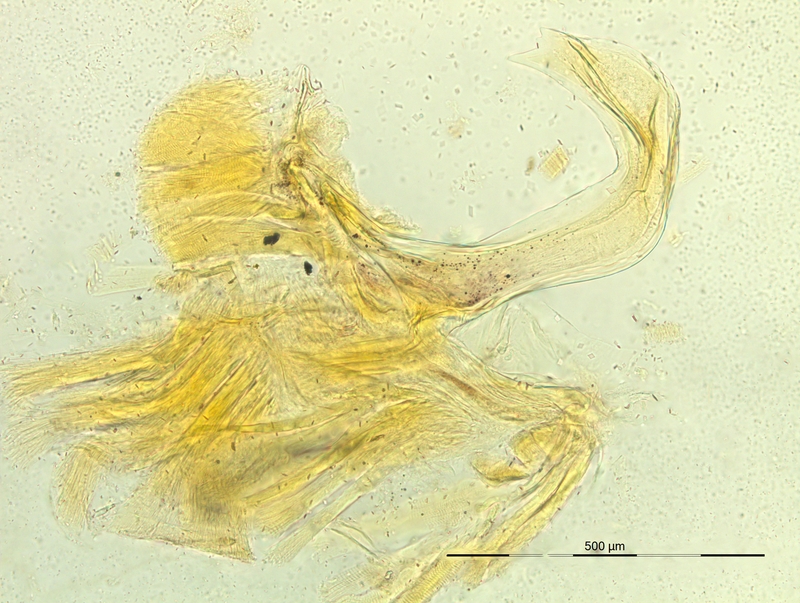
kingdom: Animalia
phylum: Arthropoda
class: Diplopoda
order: Chordeumatida
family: Craspedosomatidae
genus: Pyrgocyphosoma
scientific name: Pyrgocyphosoma oppidicola
